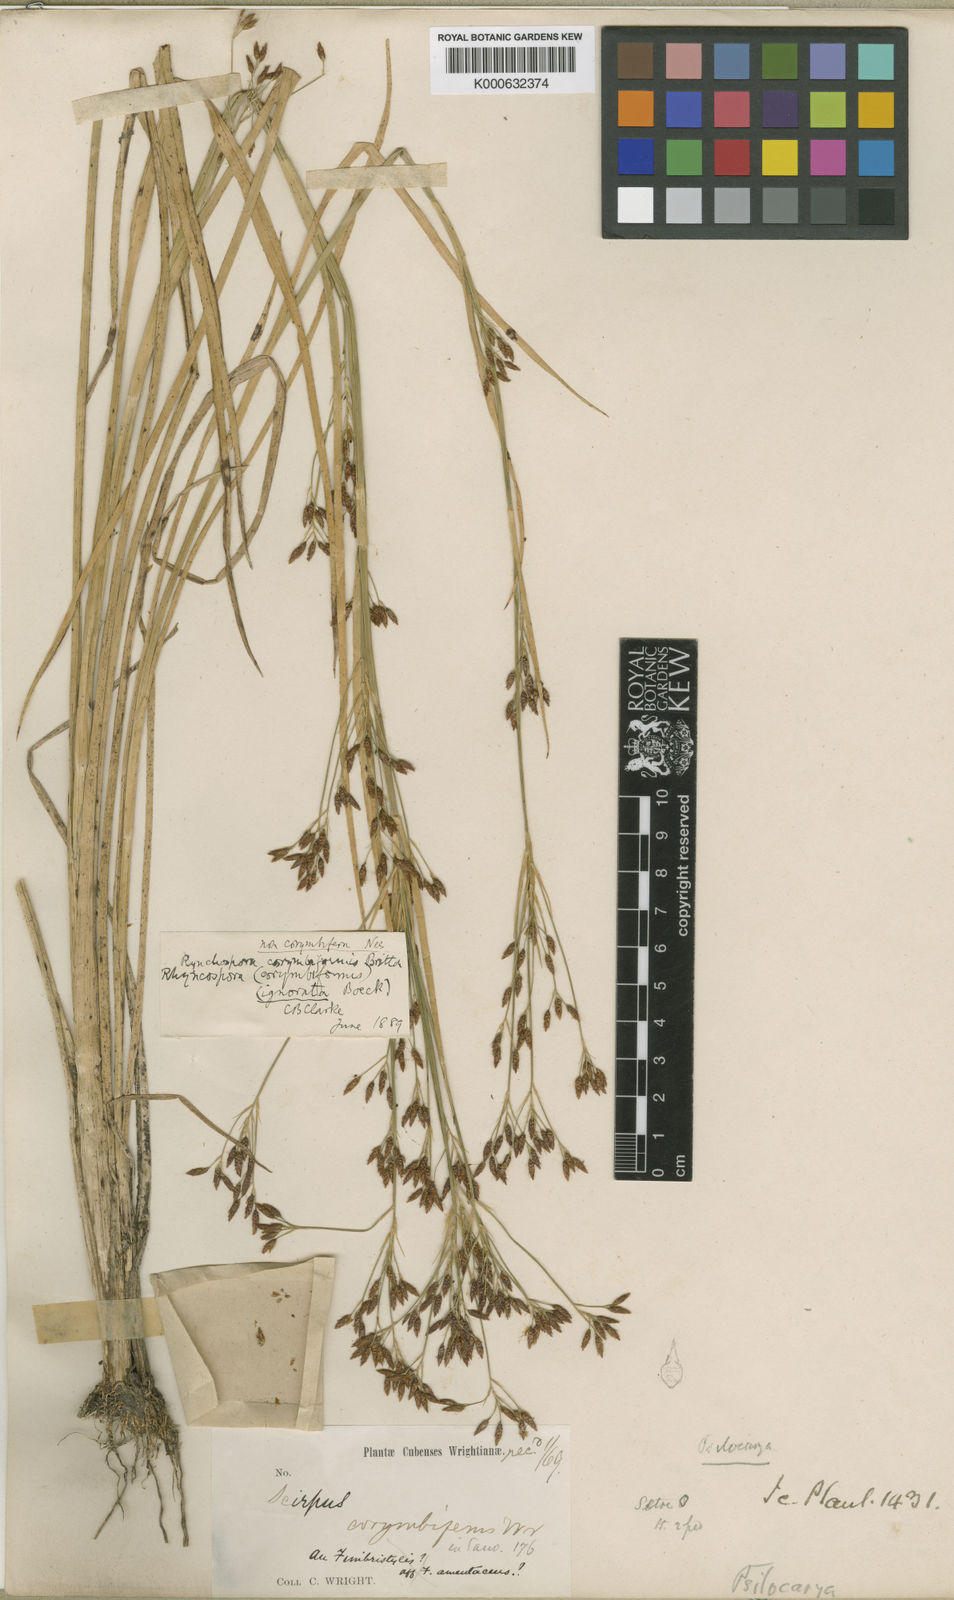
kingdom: Plantae
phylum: Tracheophyta
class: Liliopsida
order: Poales
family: Cyperaceae
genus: Rhynchospora
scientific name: Rhynchospora scirpoides
